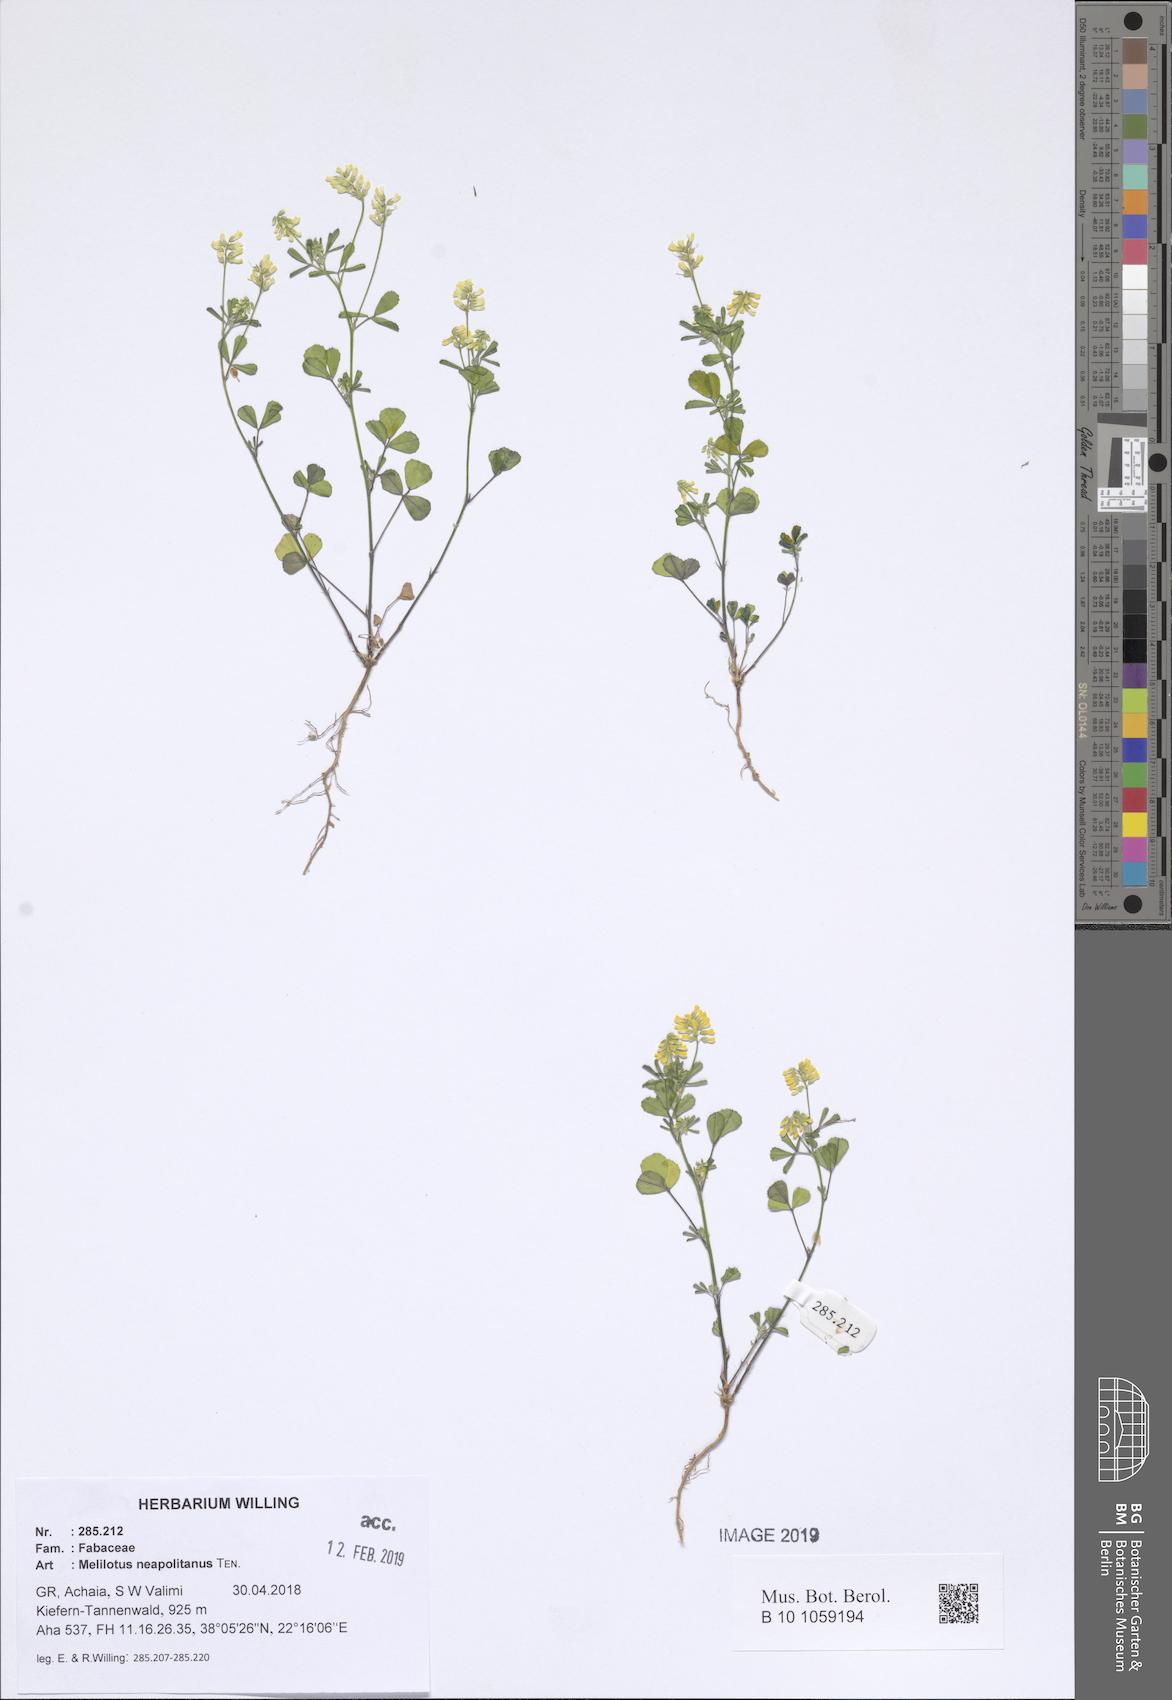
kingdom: Plantae
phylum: Tracheophyta
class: Magnoliopsida
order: Fabales
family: Fabaceae
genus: Melilotus
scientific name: Melilotus neapolitanus
